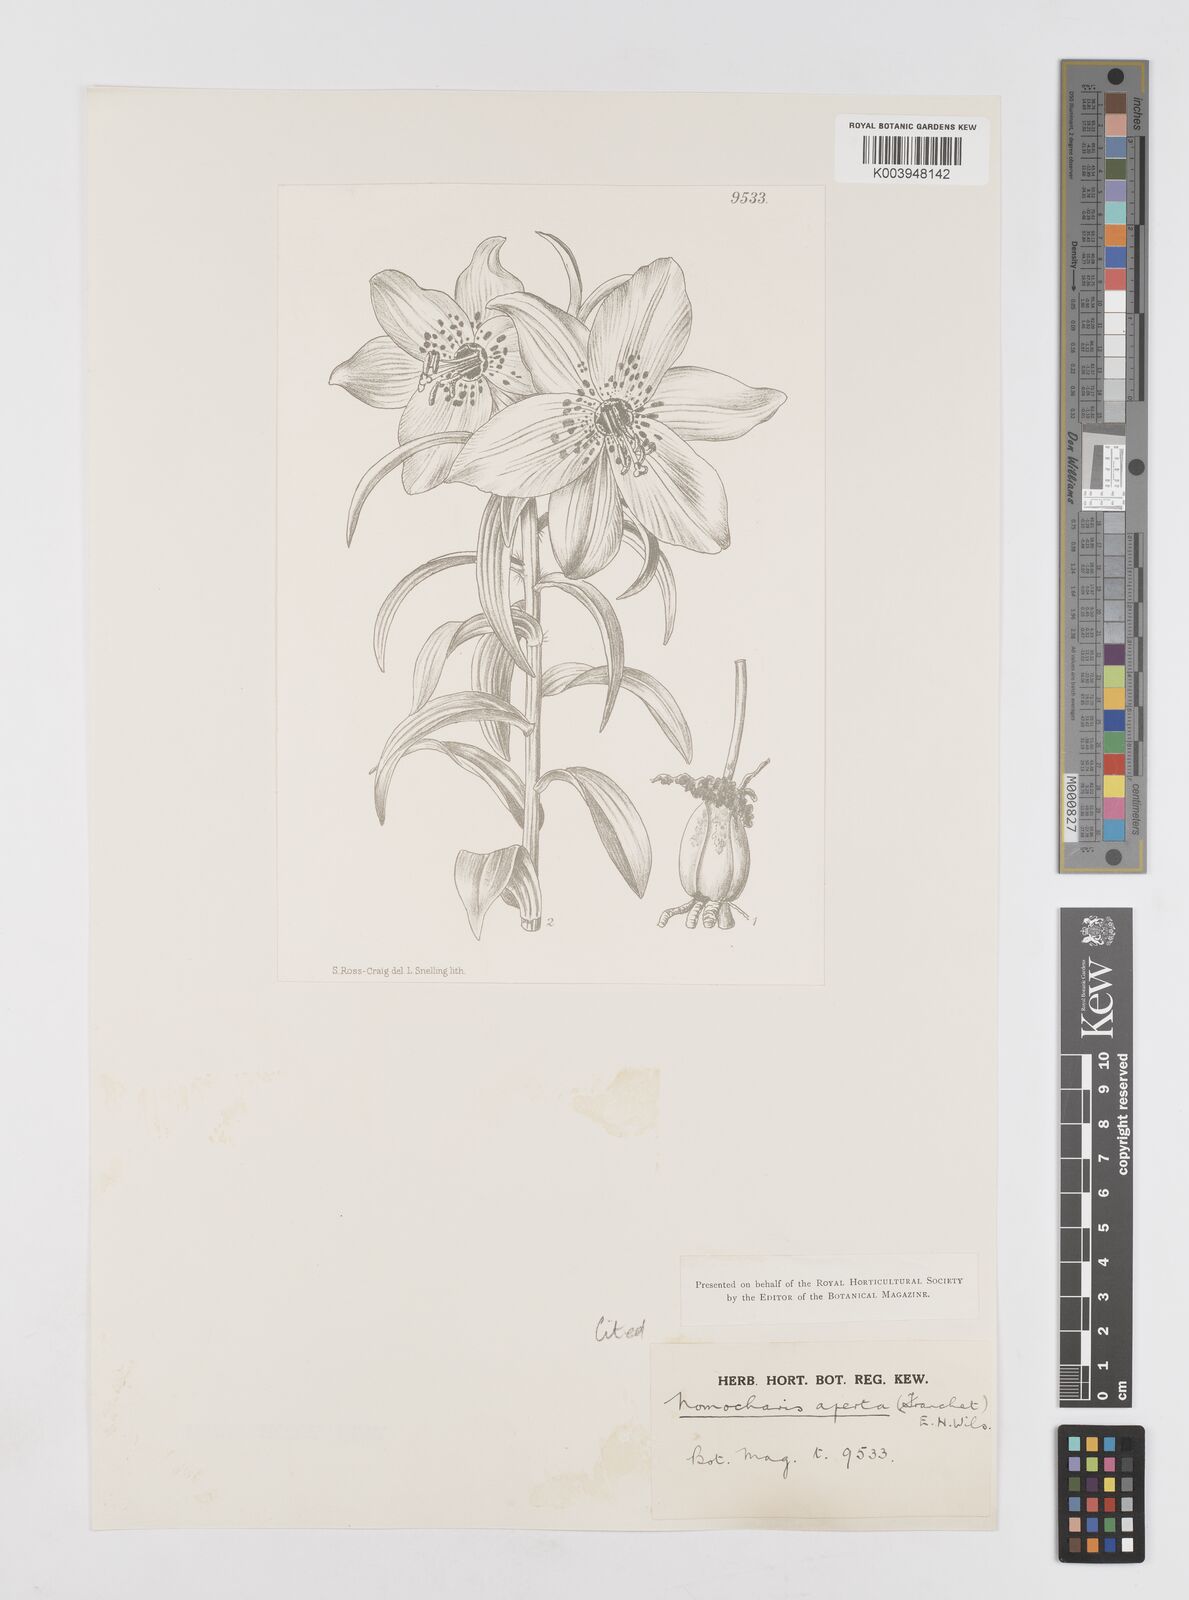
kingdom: Plantae
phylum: Tracheophyta
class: Liliopsida
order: Liliales
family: Liliaceae
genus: Lilium
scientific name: Lilium apertum
